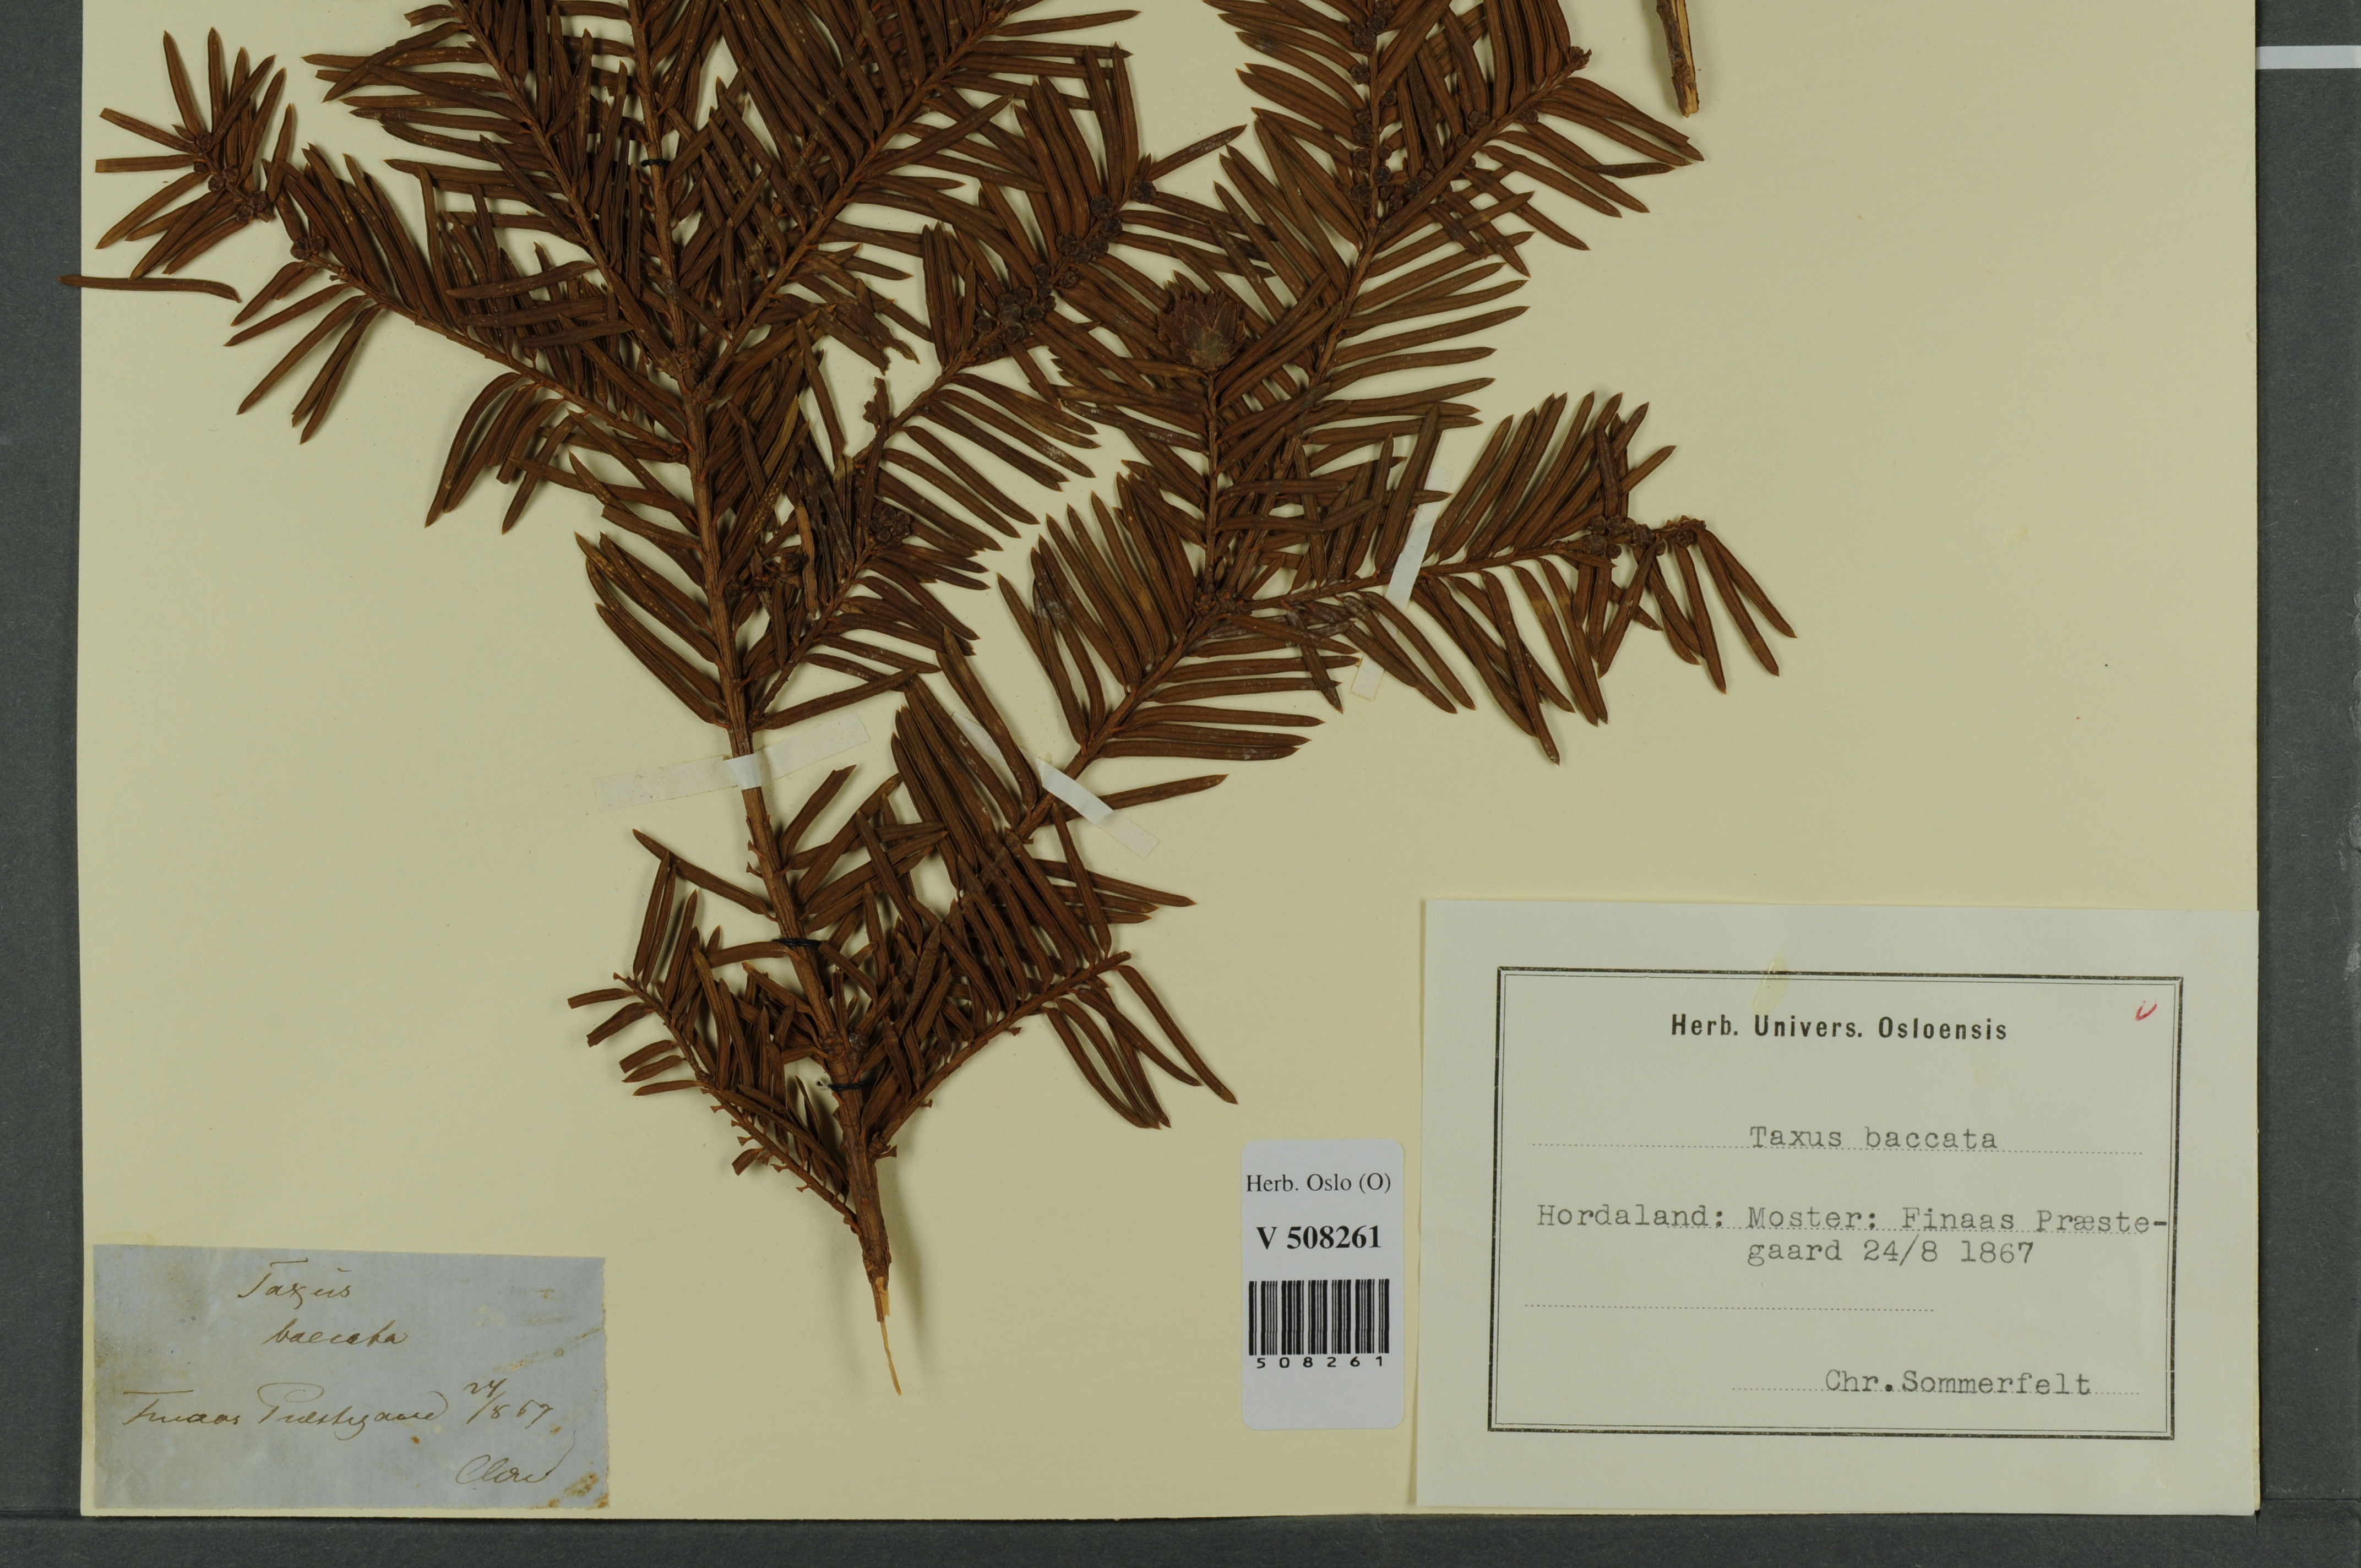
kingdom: Plantae
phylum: Tracheophyta
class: Pinopsida
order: Pinales
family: Taxaceae
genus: Taxus
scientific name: Taxus baccata
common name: Yew
